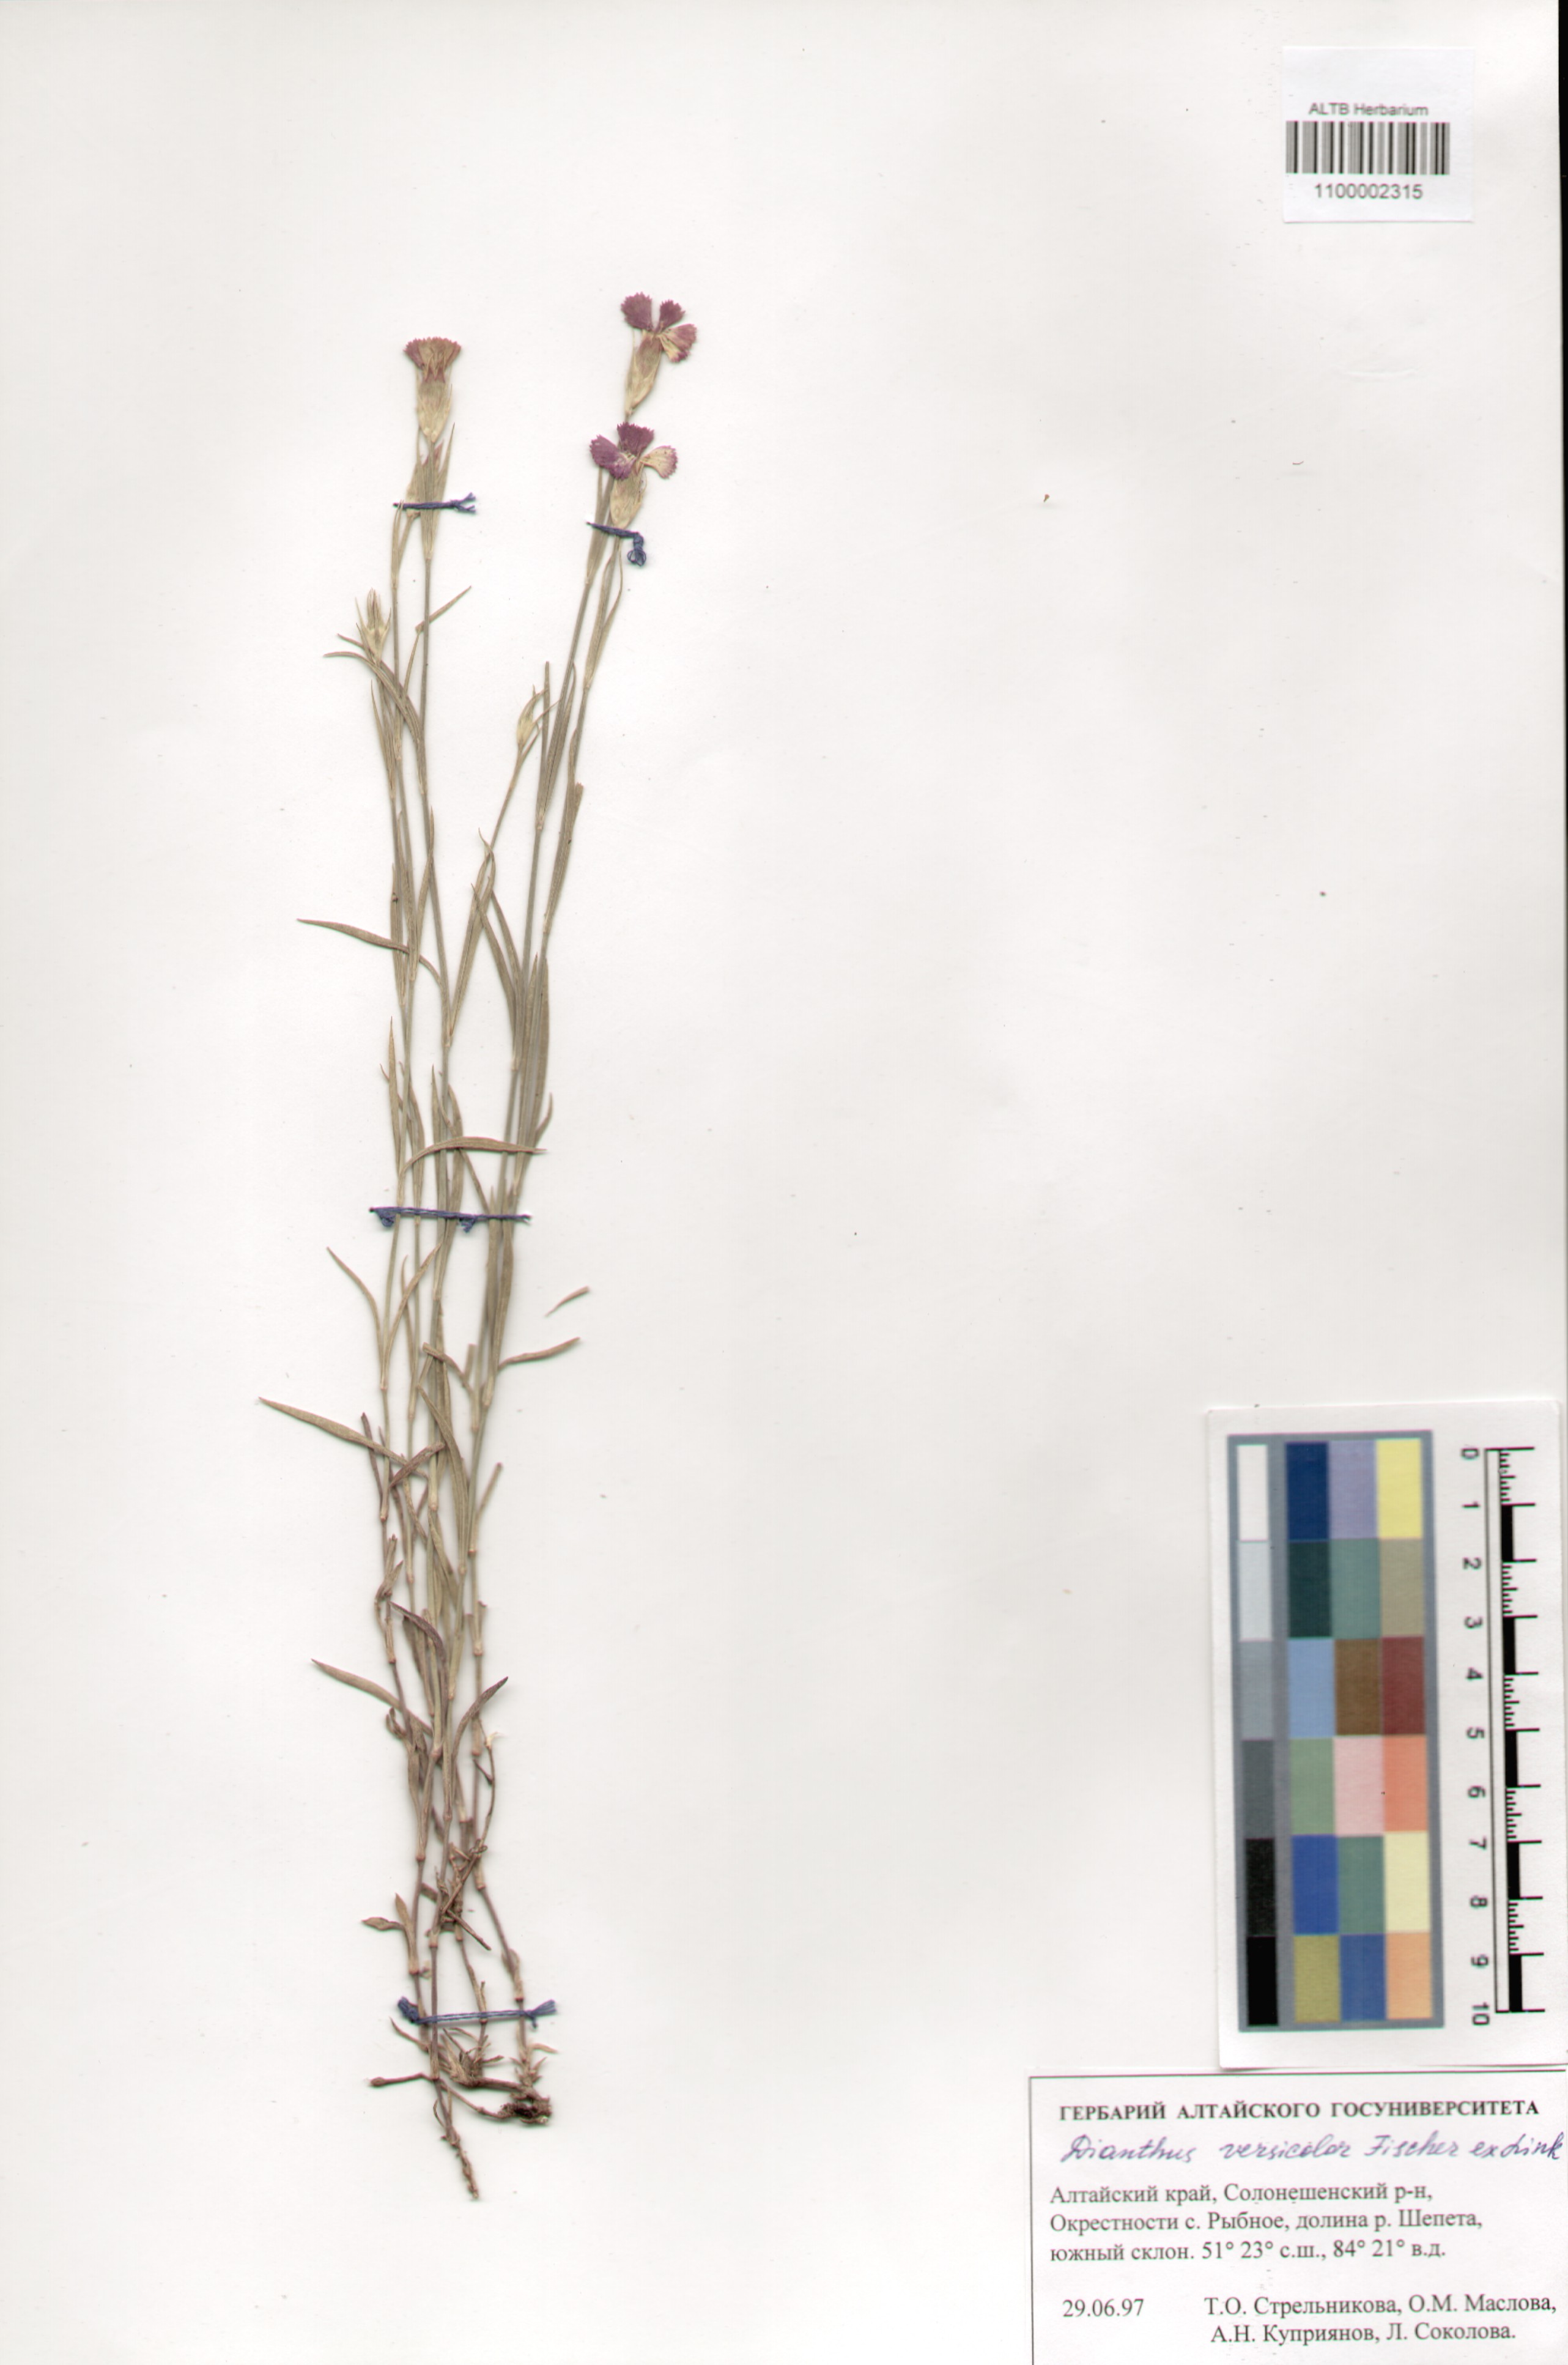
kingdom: Plantae
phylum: Tracheophyta
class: Magnoliopsida
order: Caryophyllales
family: Caryophyllaceae
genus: Dianthus
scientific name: Dianthus chinensis
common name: Rainbow pink
